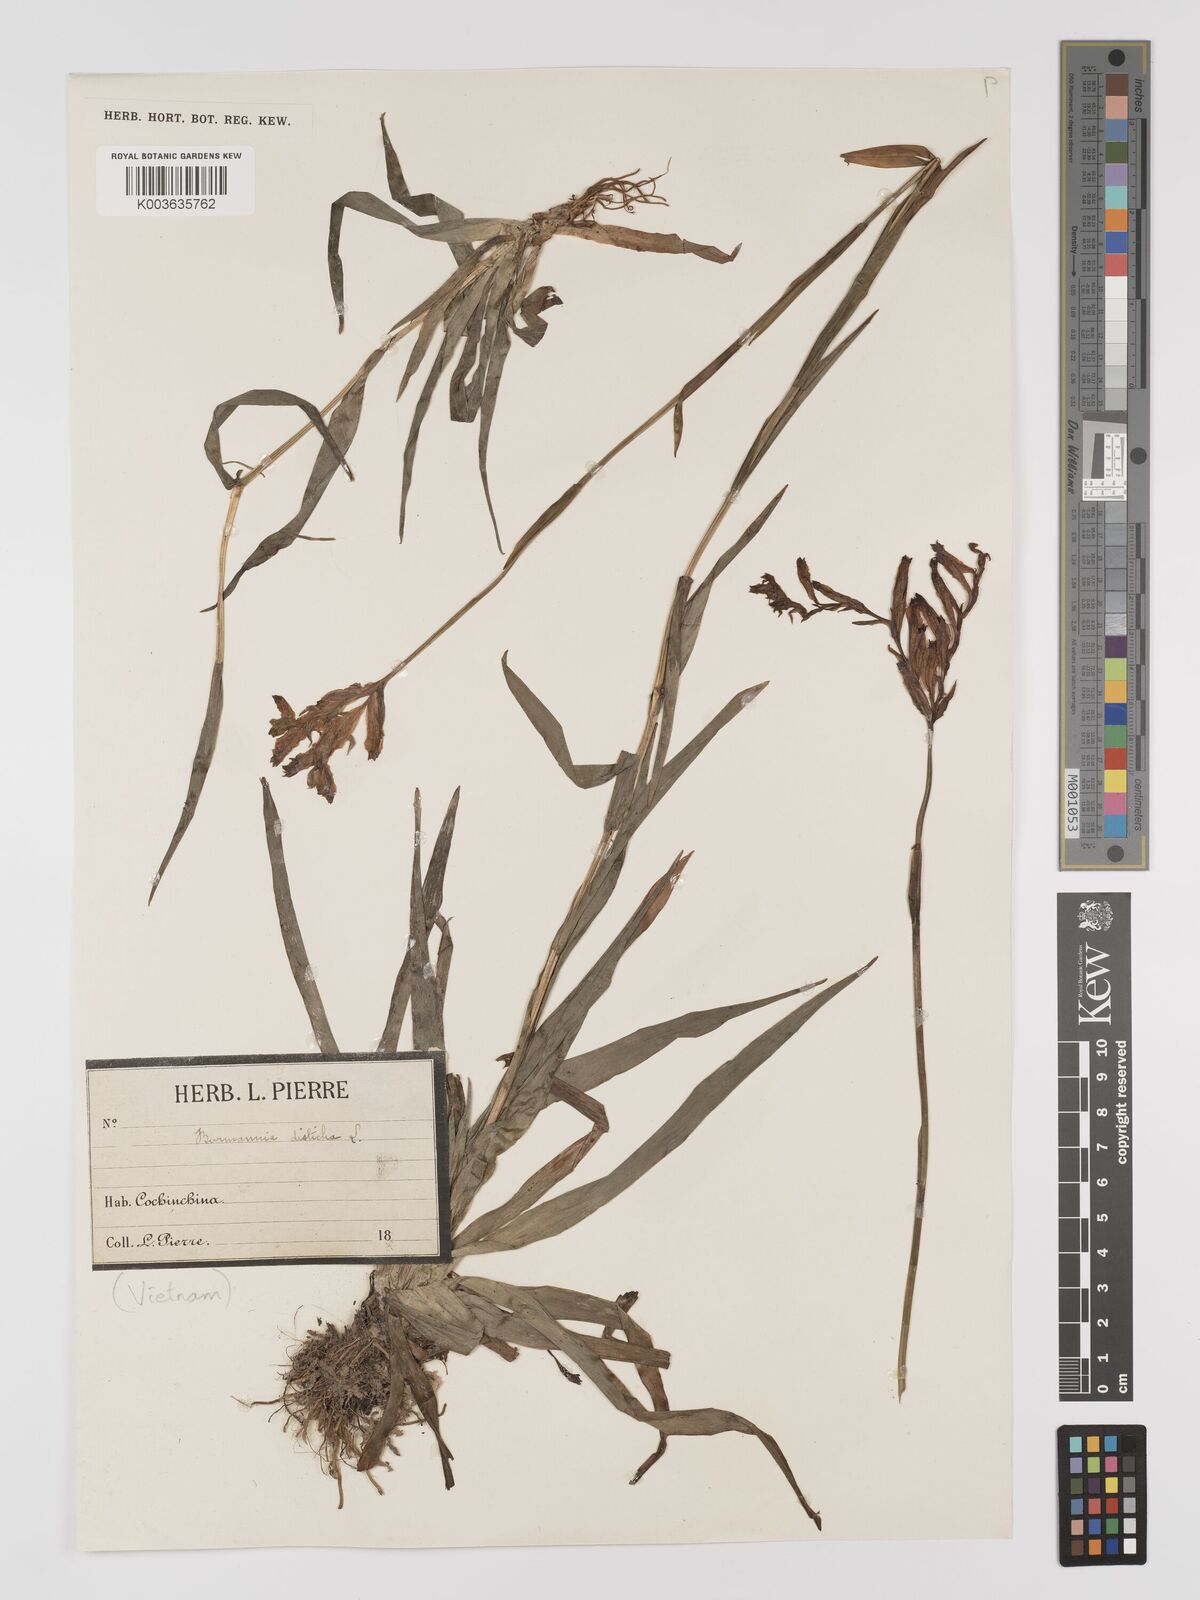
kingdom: Plantae
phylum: Tracheophyta
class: Liliopsida
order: Dioscoreales
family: Burmanniaceae
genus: Burmannia
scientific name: Burmannia disticha
